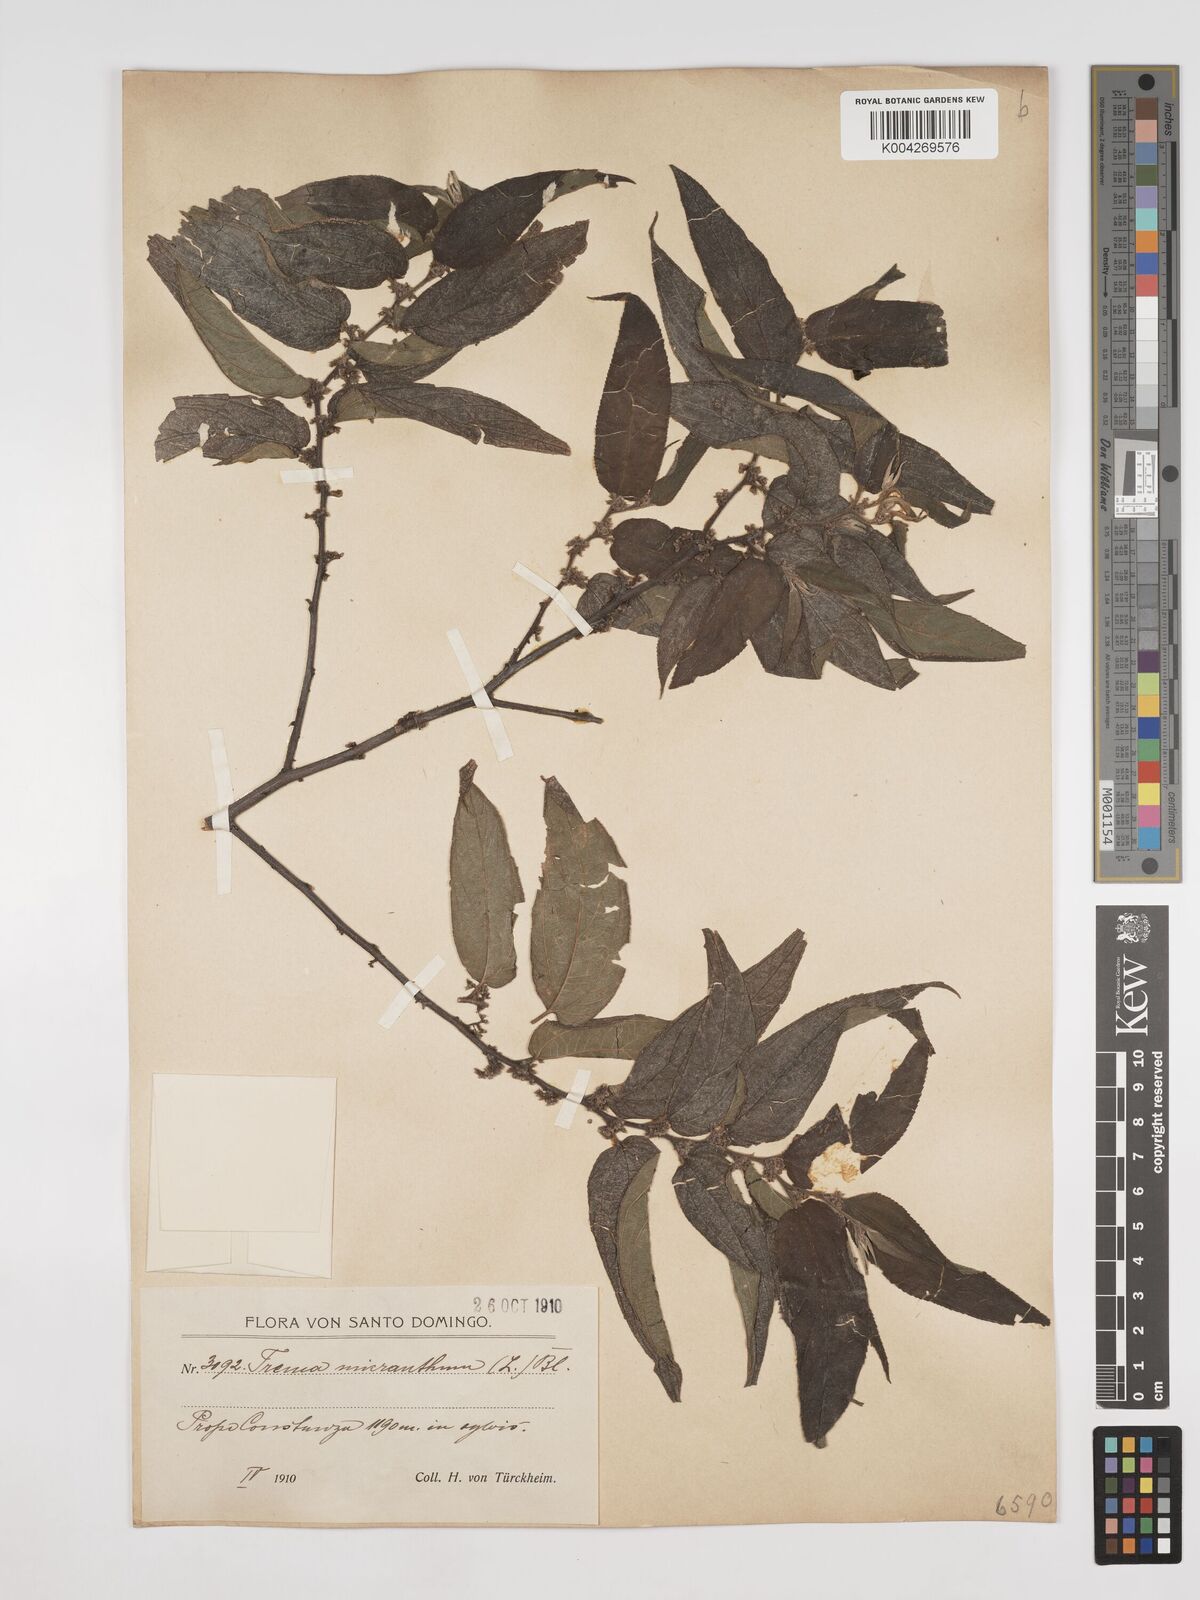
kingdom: Plantae
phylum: Tracheophyta
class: Magnoliopsida
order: Rosales
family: Cannabaceae
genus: Trema
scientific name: Trema micranthum
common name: Jamaican nettletree
